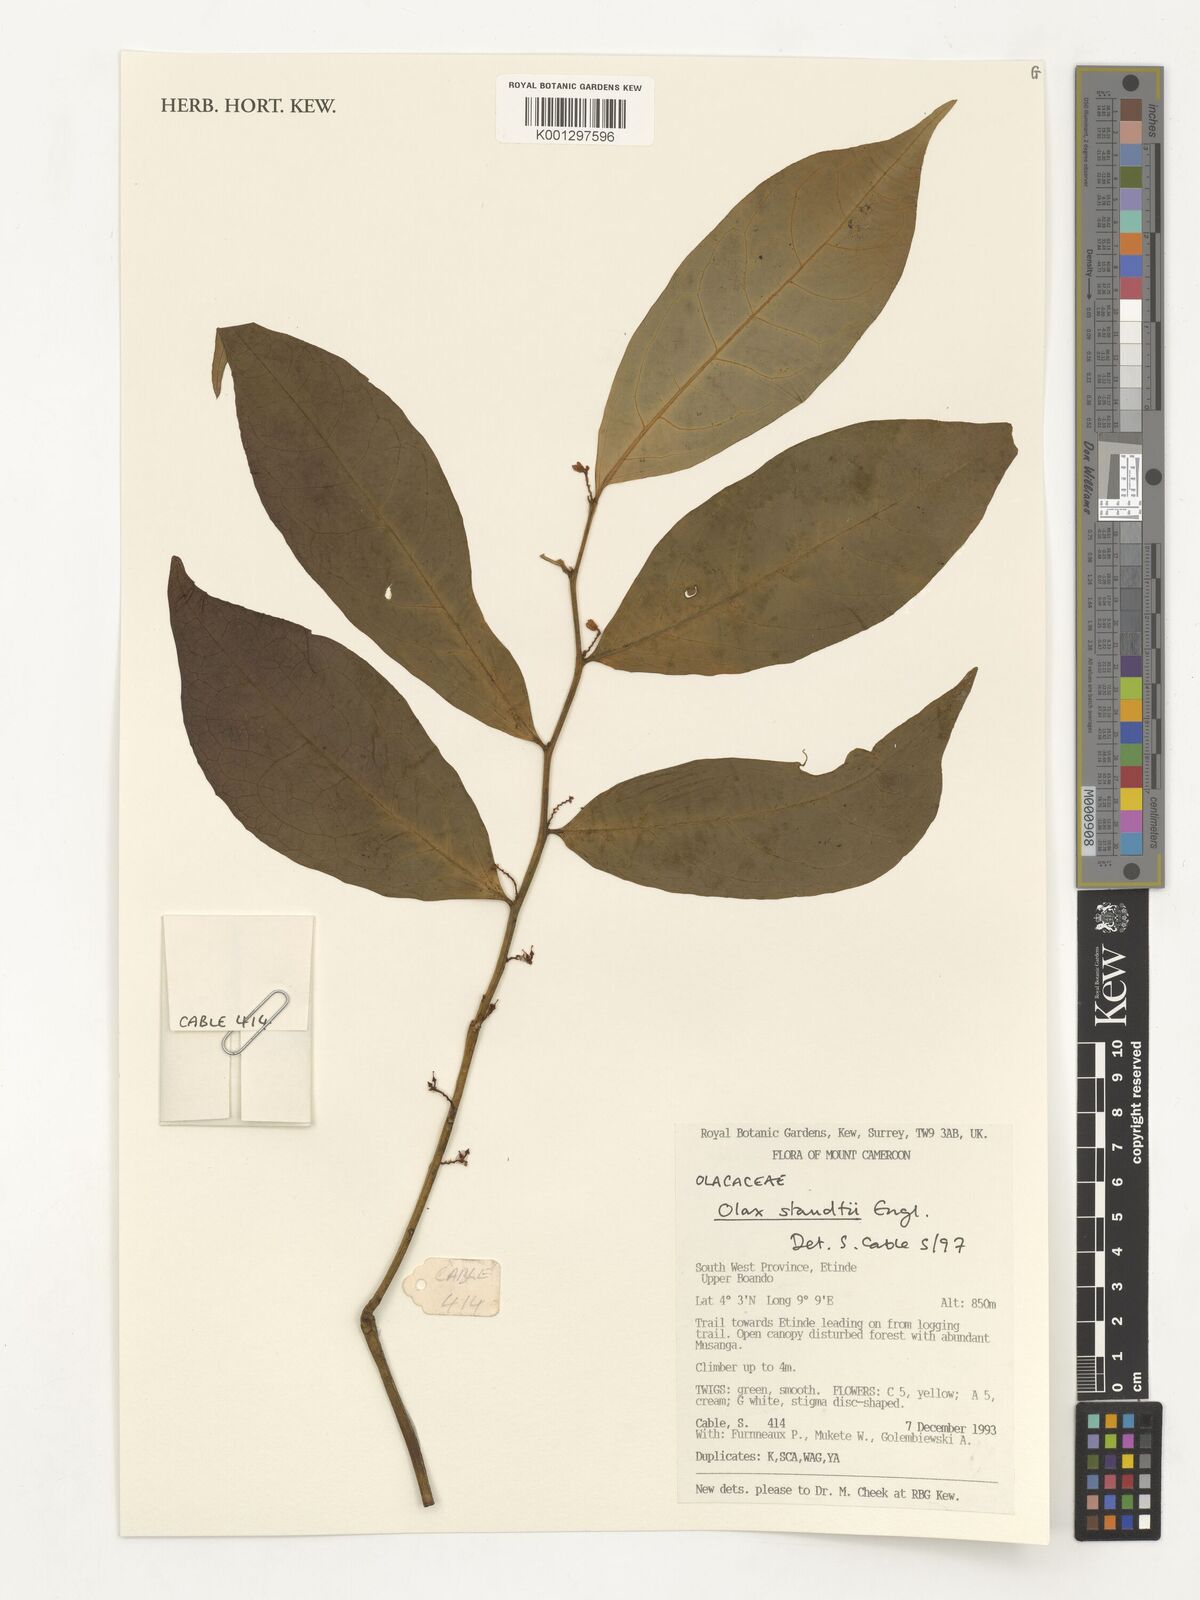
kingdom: Plantae
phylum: Tracheophyta
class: Magnoliopsida
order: Santalales
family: Olacaceae
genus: Olax
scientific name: Olax staudtii
